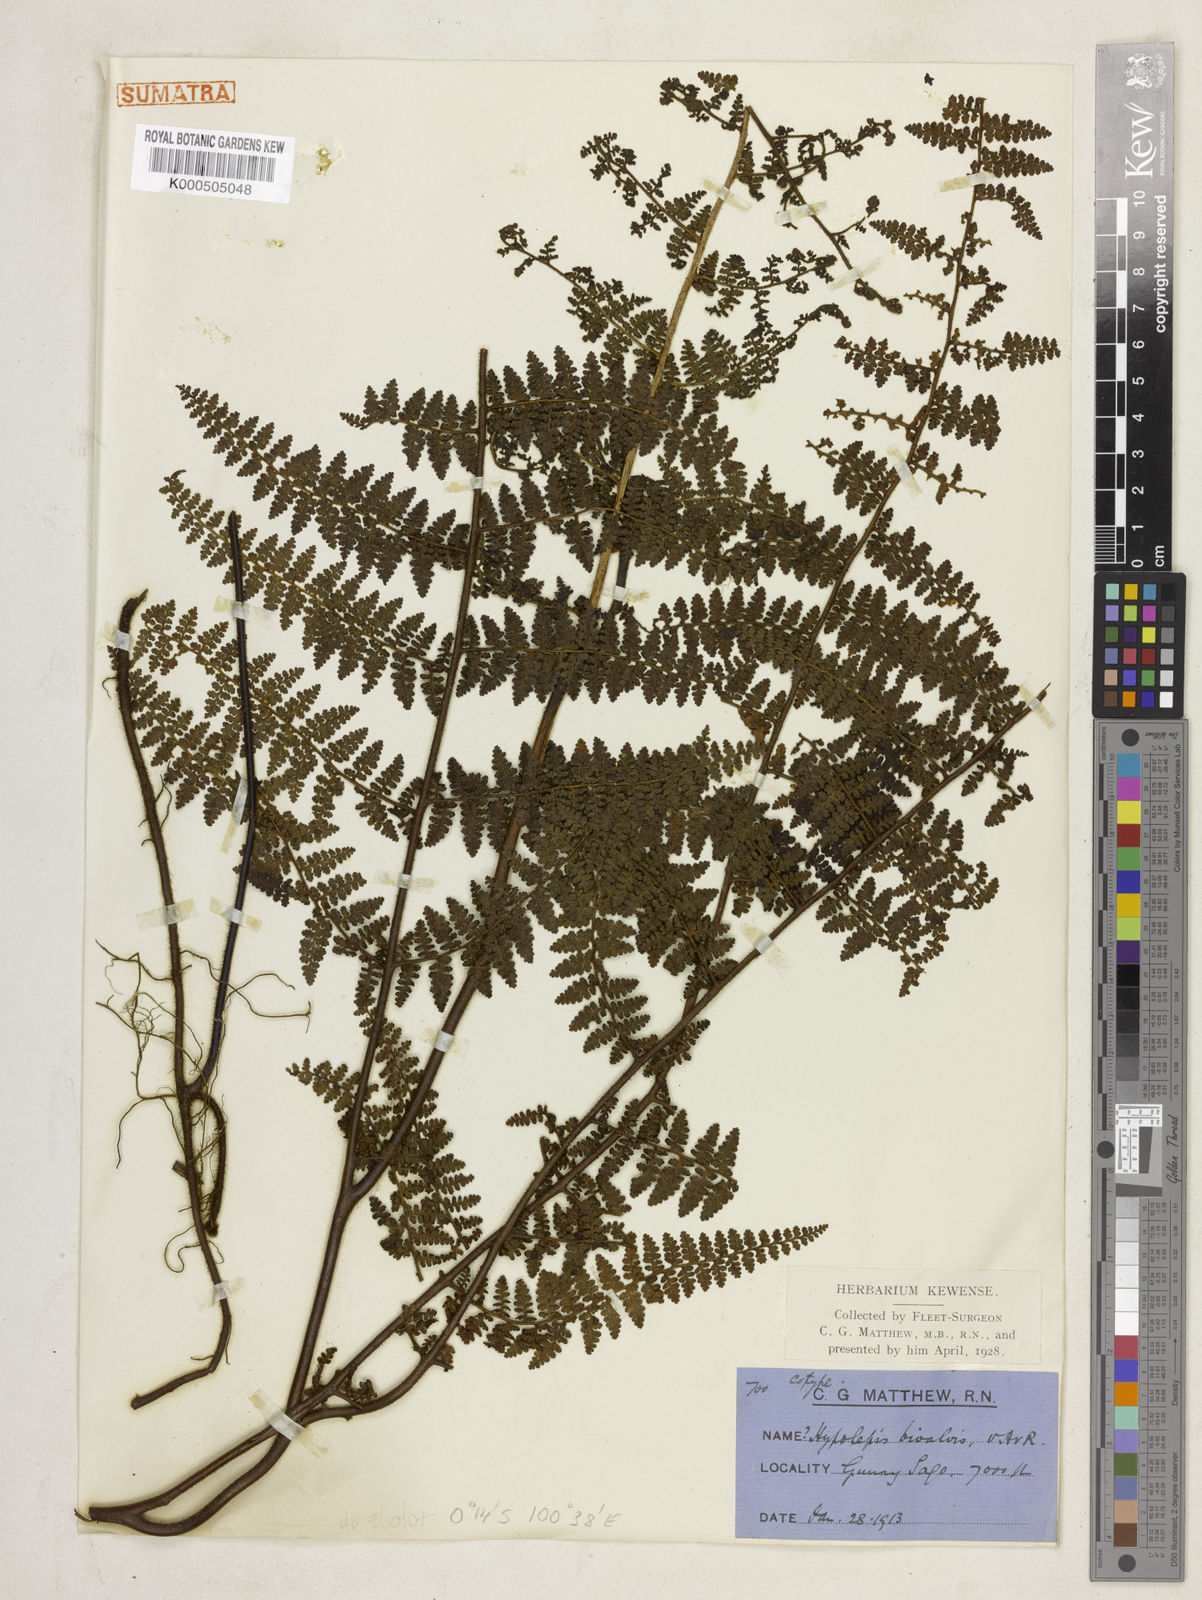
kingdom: Plantae
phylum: Tracheophyta
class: Polypodiopsida
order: Polypodiales
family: Dennstaedtiaceae
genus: Paesia
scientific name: Paesia elmeri
